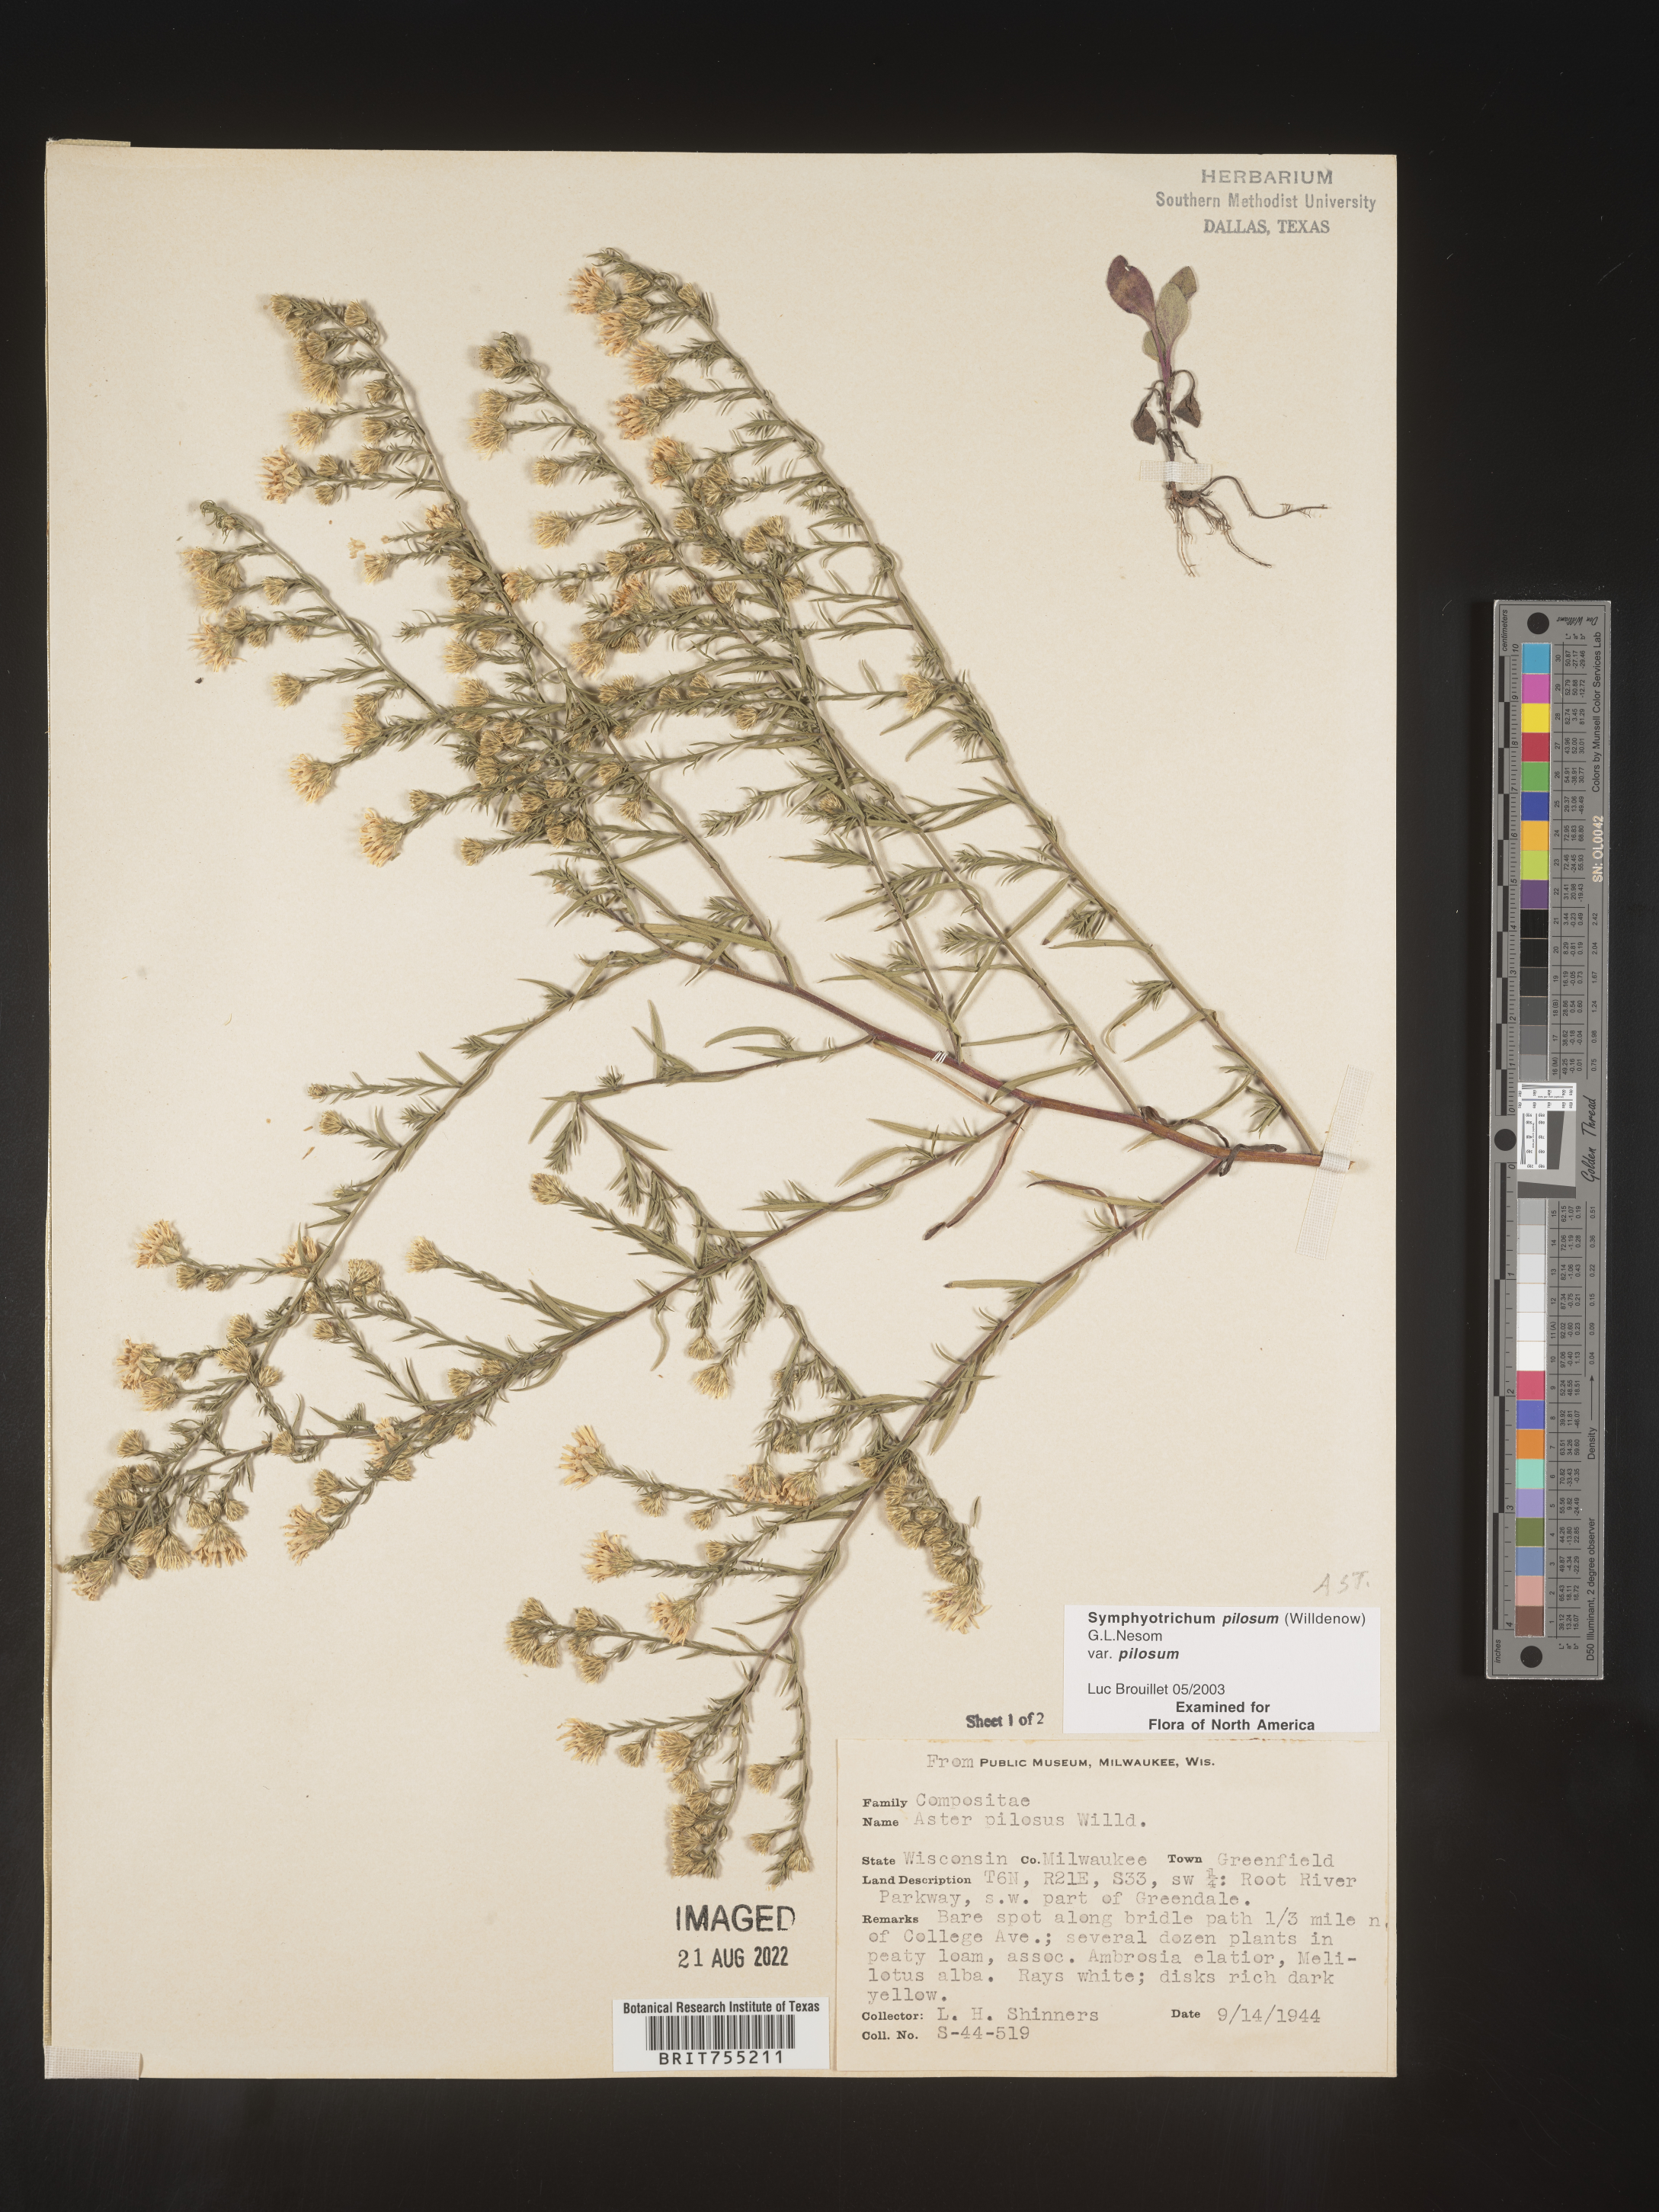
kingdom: Plantae
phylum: Tracheophyta
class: Magnoliopsida
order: Asterales
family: Asteraceae
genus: Symphyotrichum
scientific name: Symphyotrichum pilosum
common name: Awl aster
